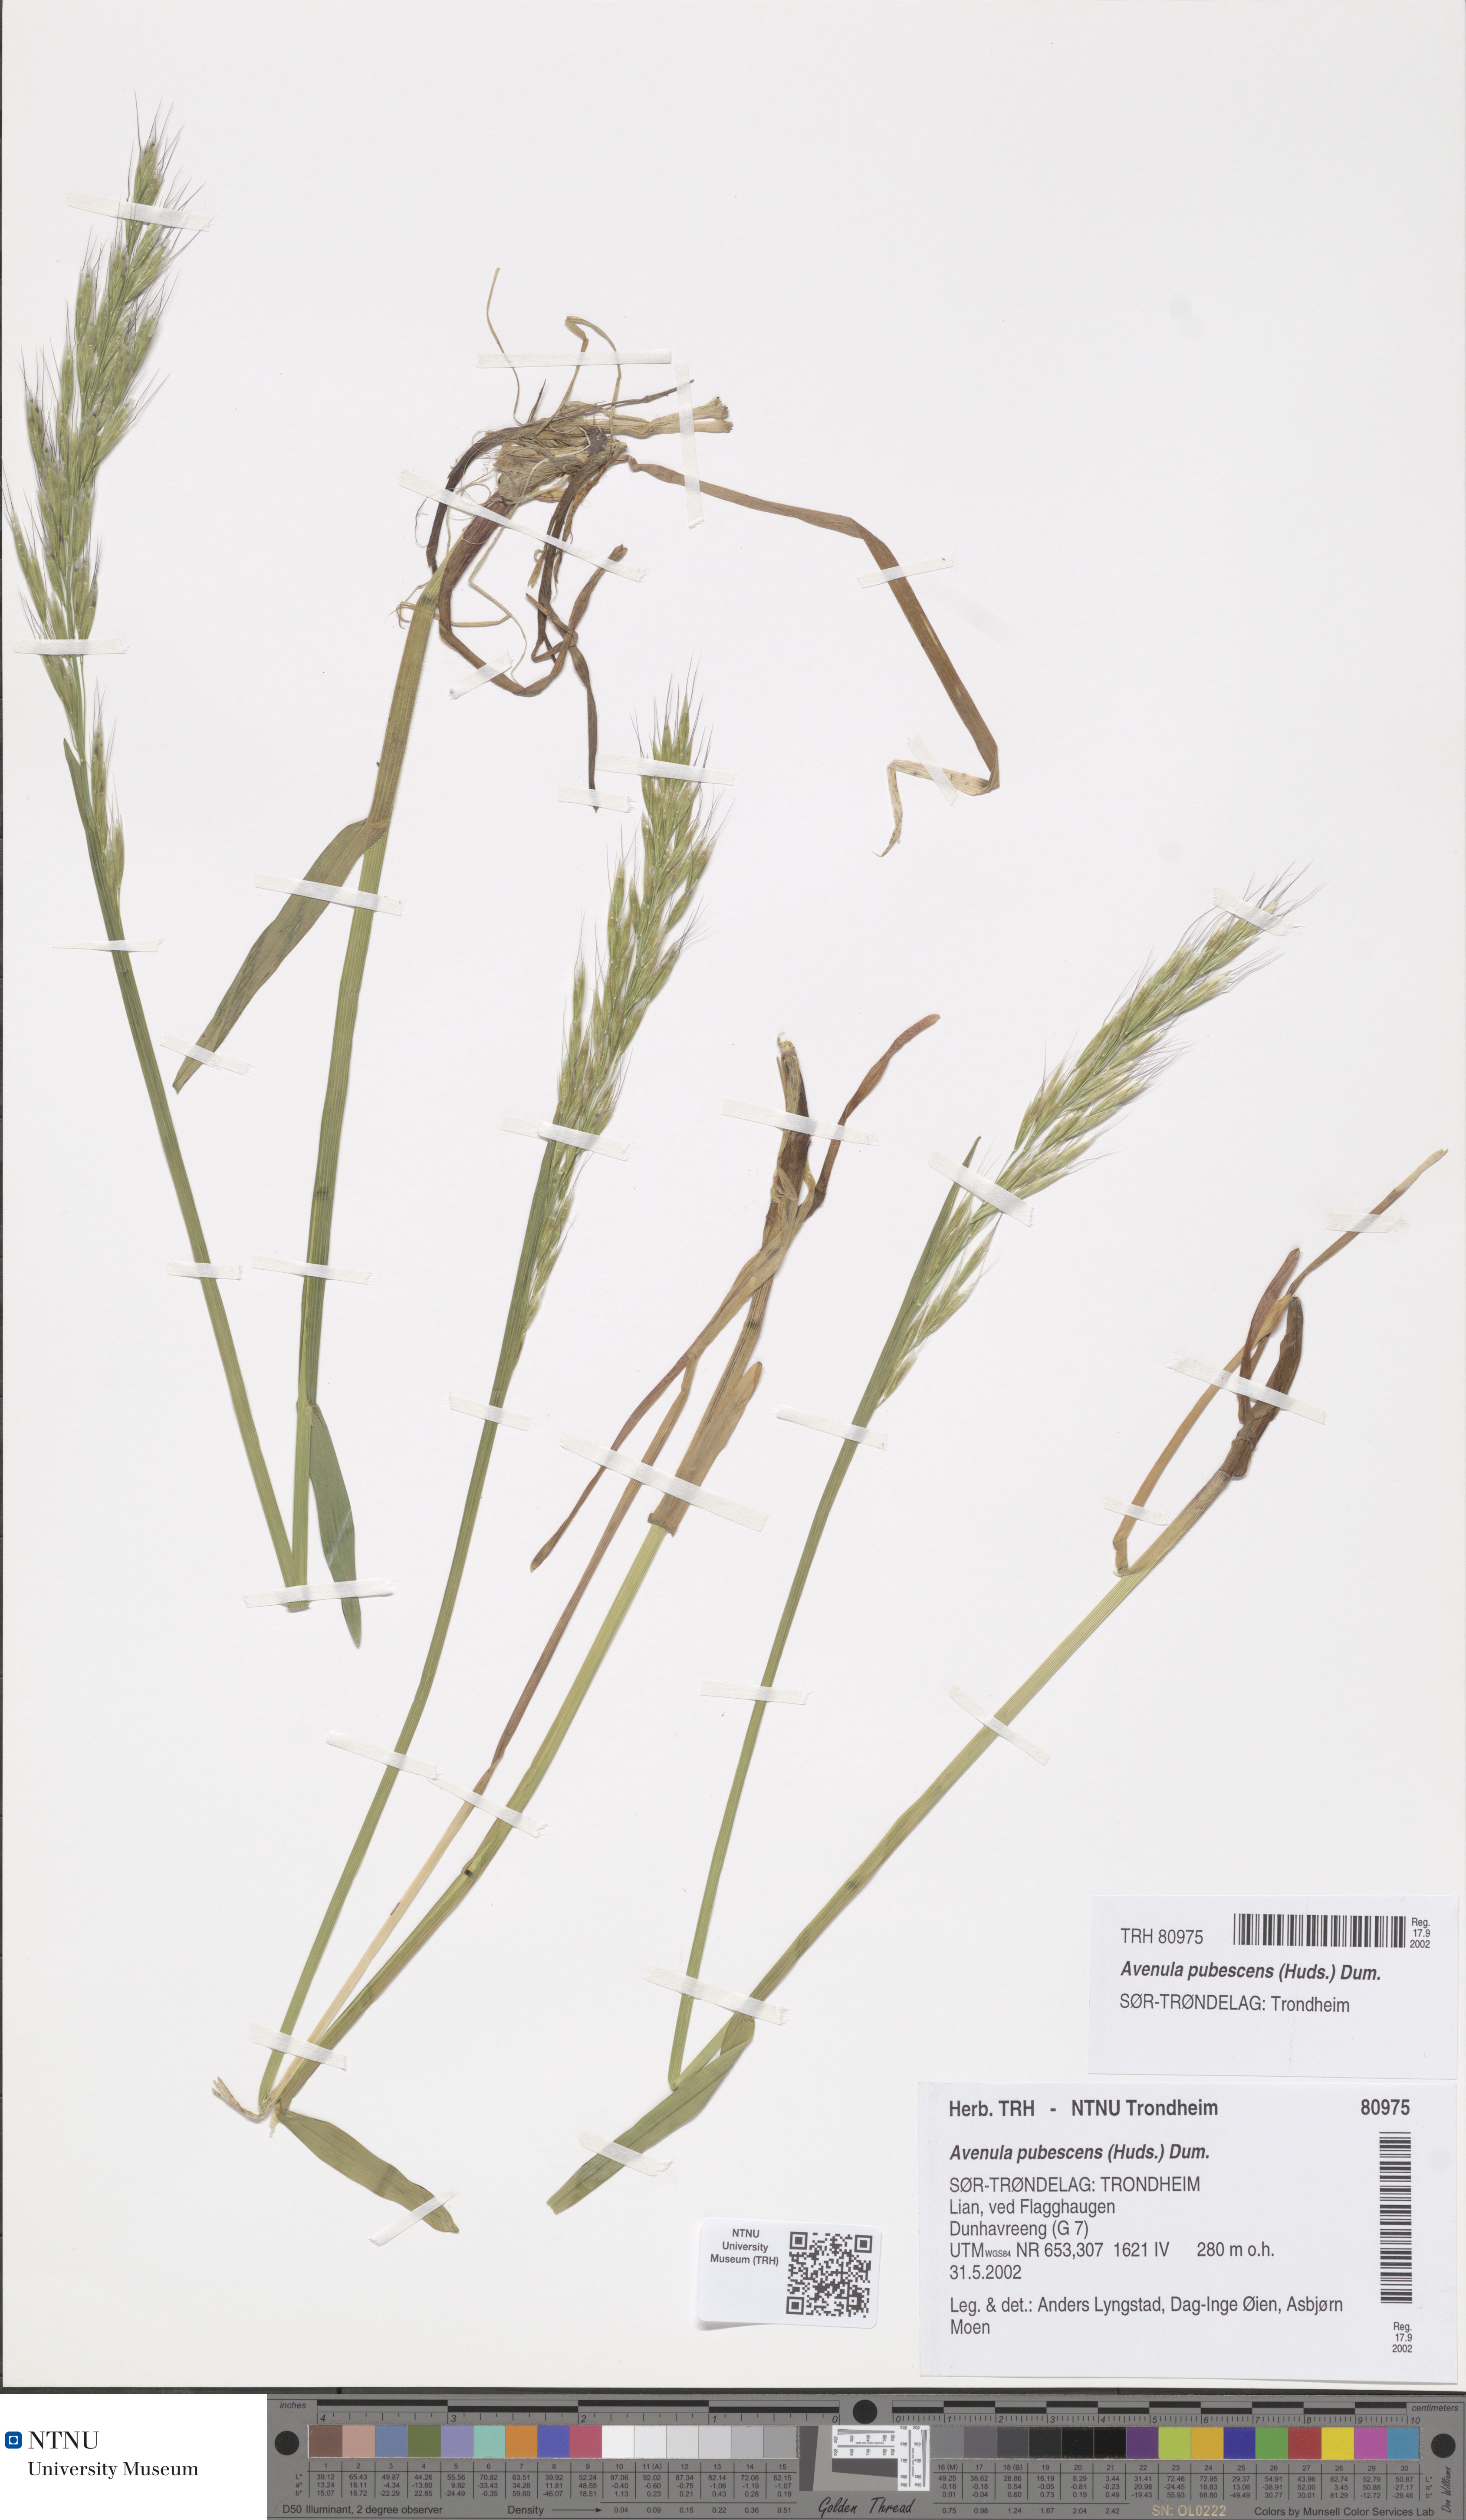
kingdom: Plantae
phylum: Tracheophyta
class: Liliopsida
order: Poales
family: Poaceae
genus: Avenula
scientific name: Avenula pubescens
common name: Downy alpine oatgrass
